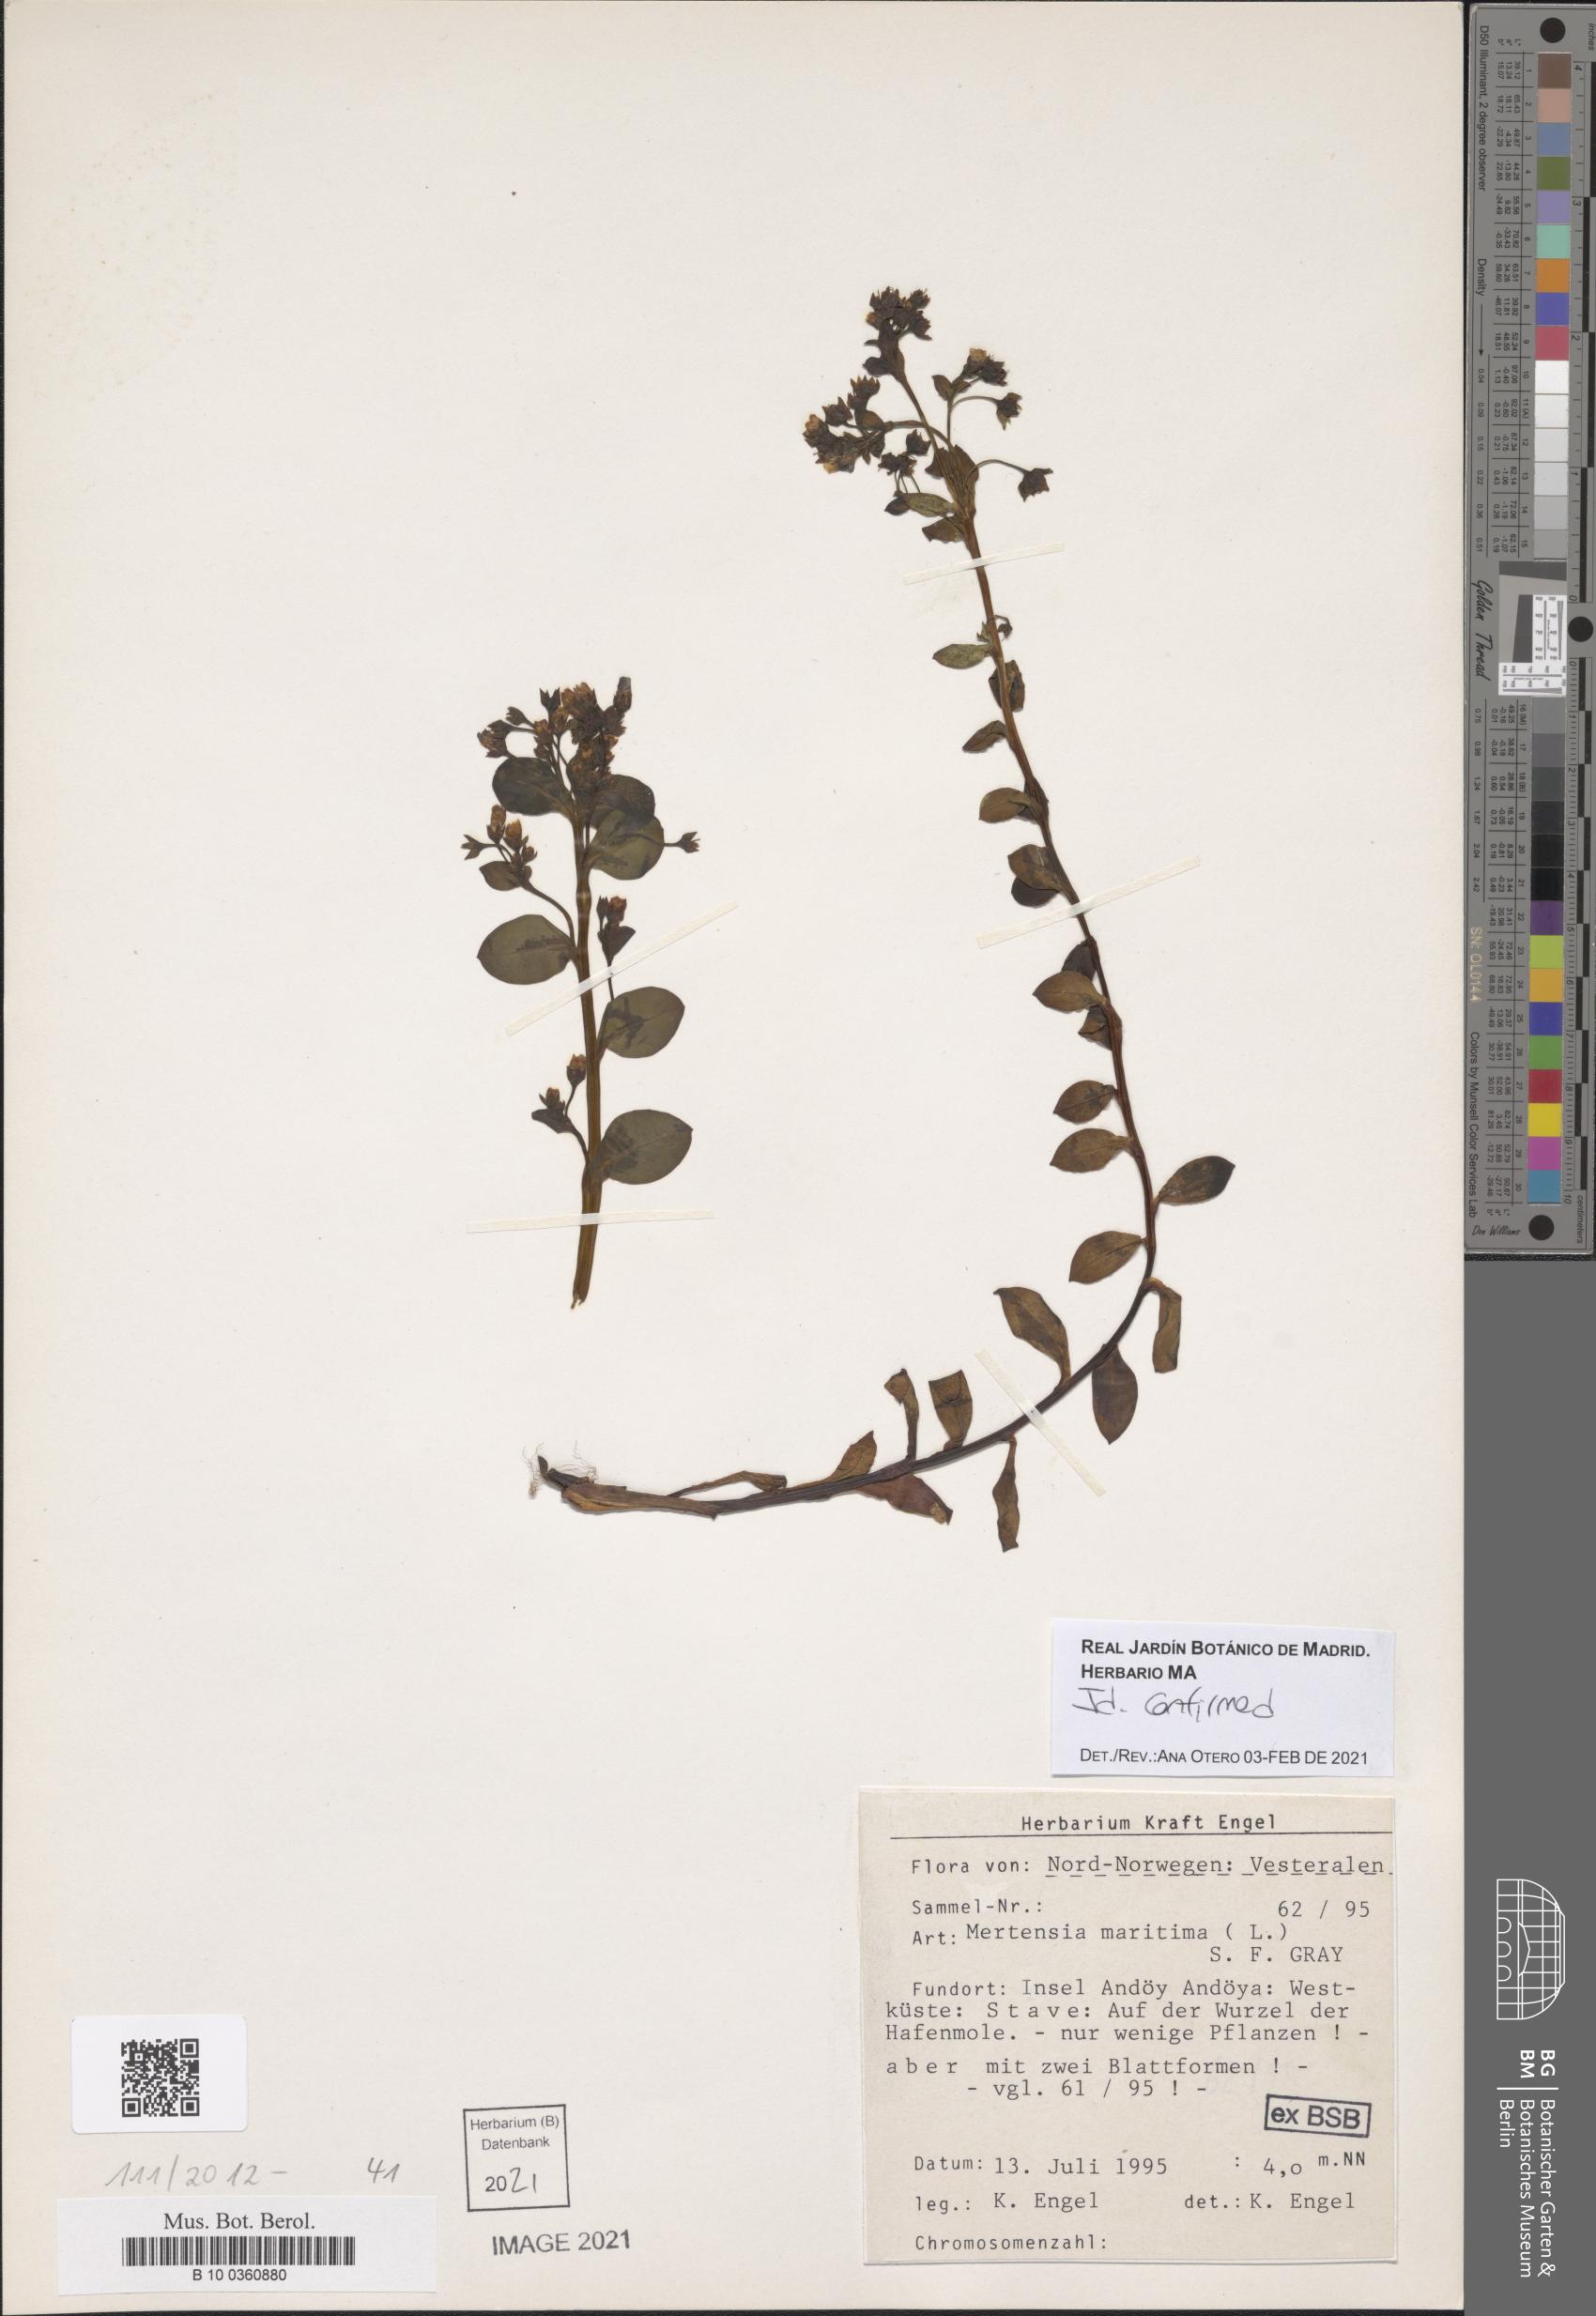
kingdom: Plantae
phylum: Tracheophyta
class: Magnoliopsida
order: Boraginales
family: Boraginaceae
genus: Mertensia
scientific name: Mertensia maritima
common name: Oysterplant
